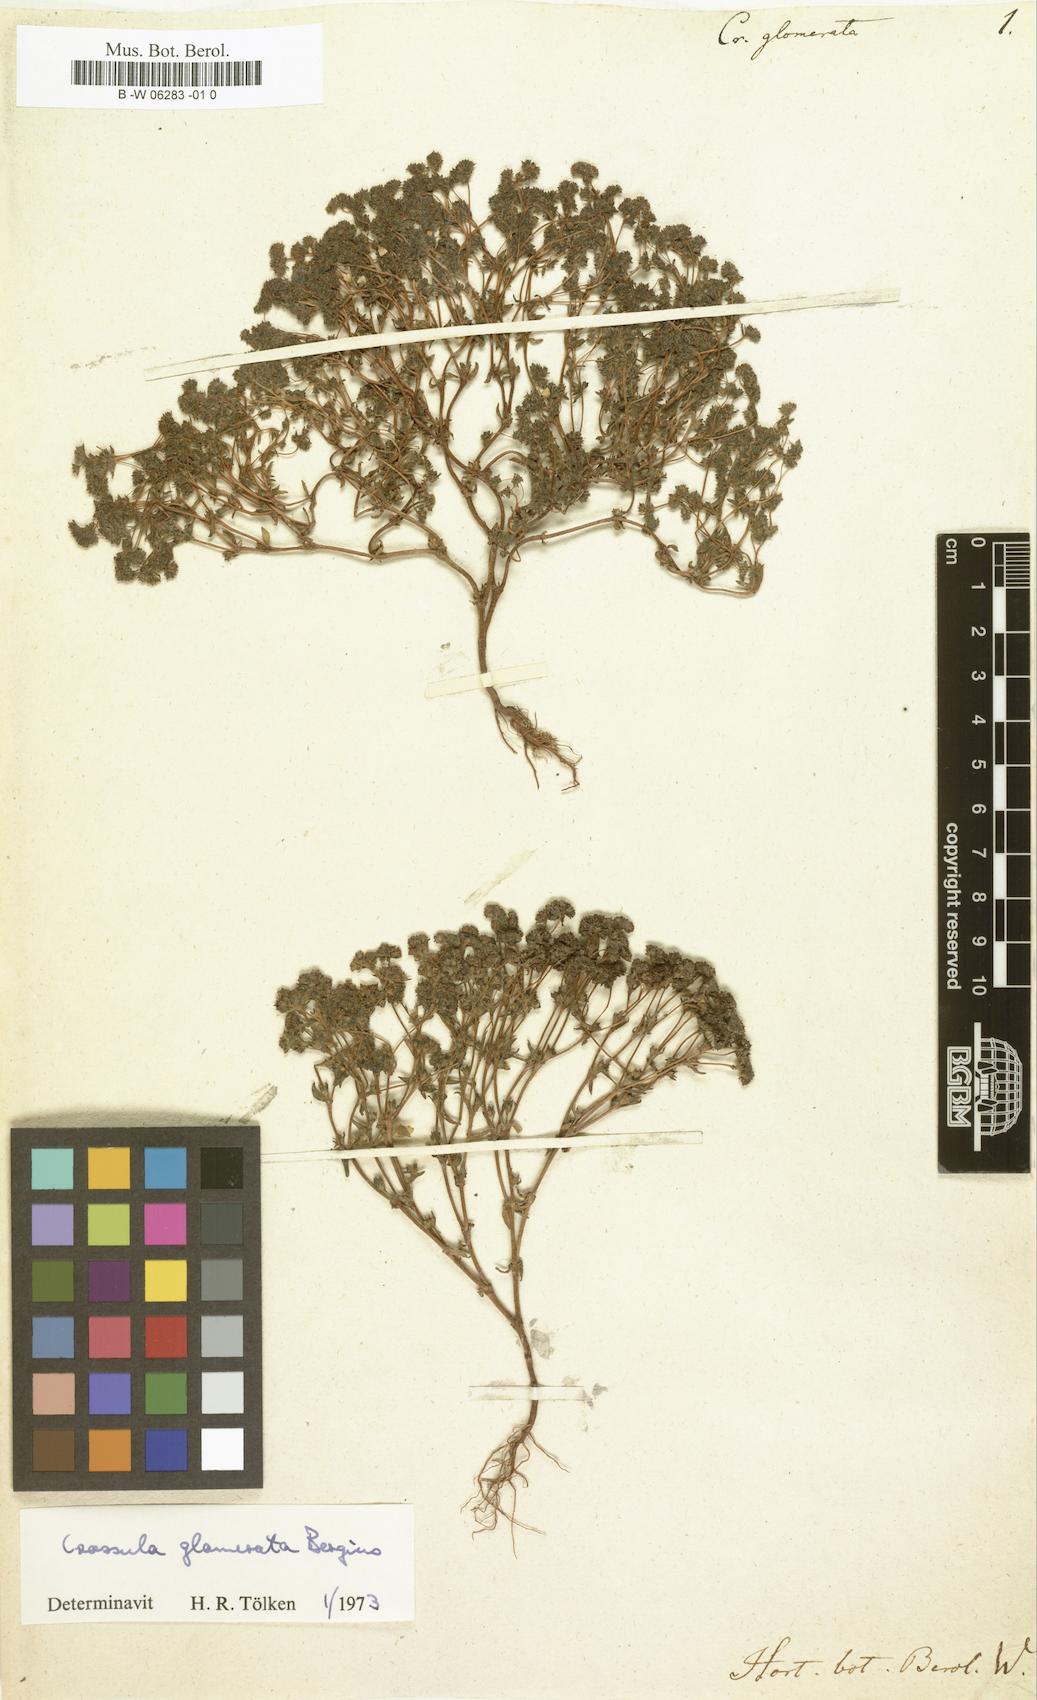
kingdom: Plantae
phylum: Tracheophyta
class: Magnoliopsida
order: Saxifragales
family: Crassulaceae
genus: Crassula
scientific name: Crassula glomerata
